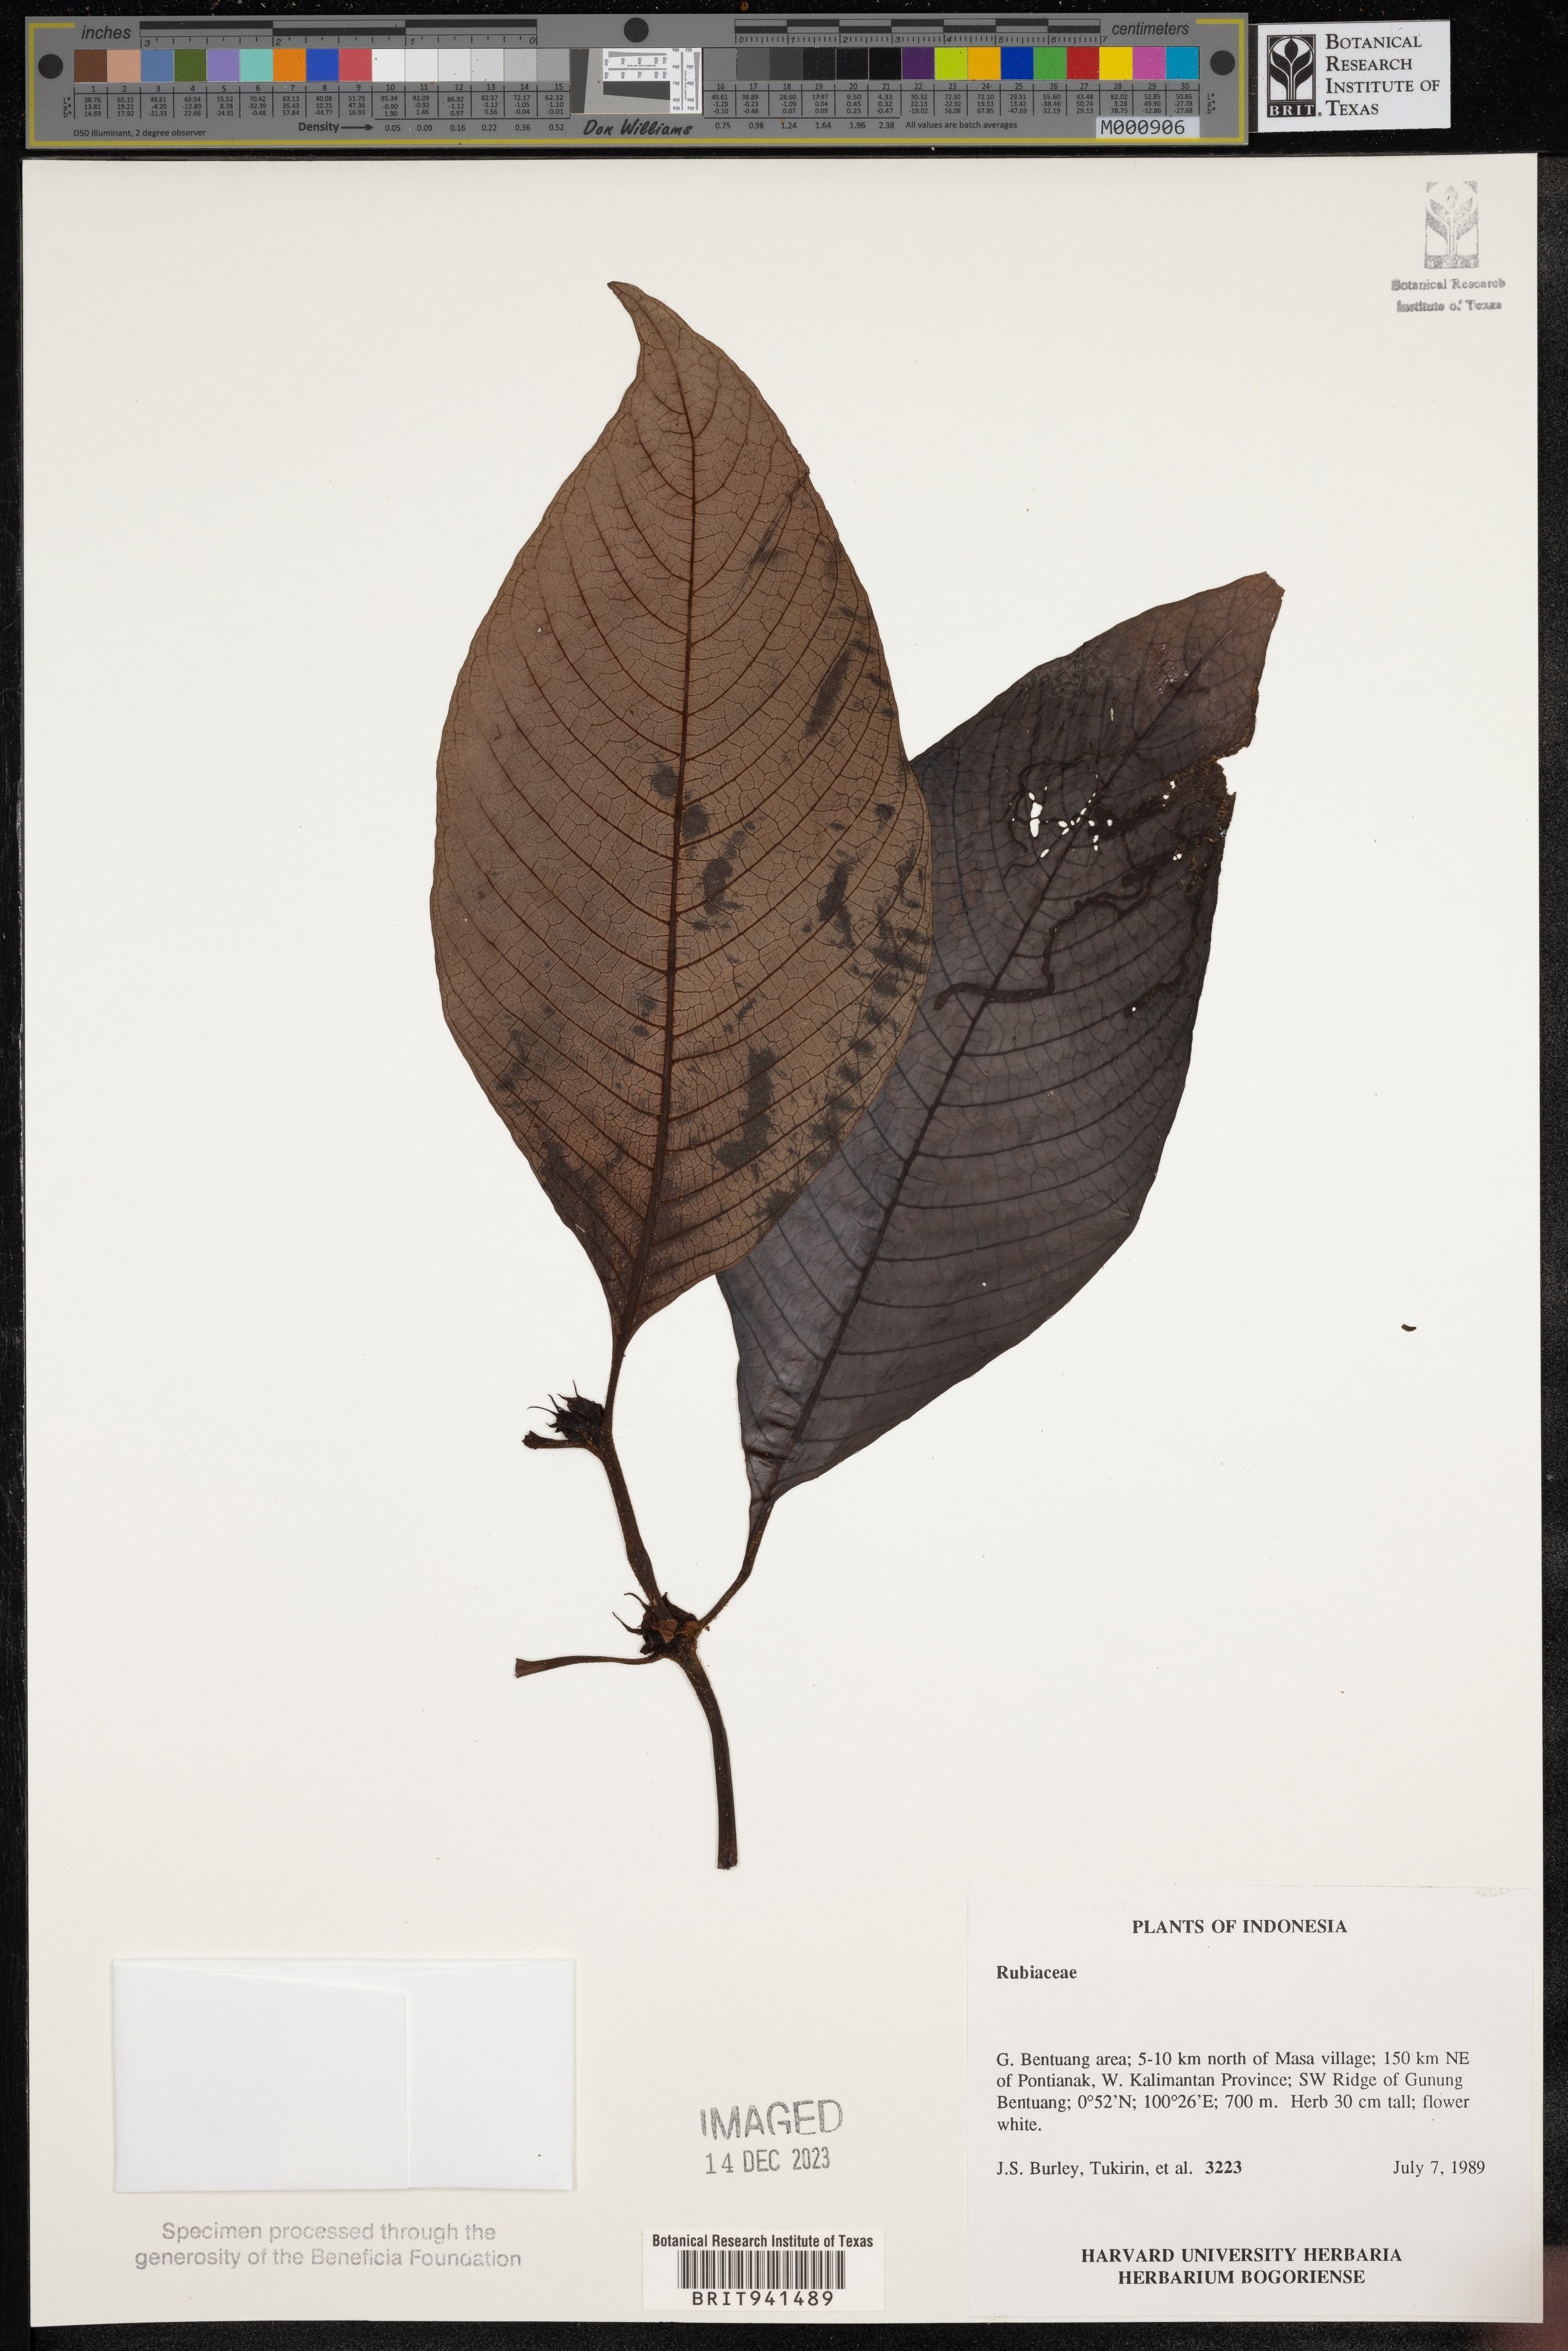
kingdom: Plantae
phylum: Tracheophyta
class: Magnoliopsida
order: Gentianales
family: Rubiaceae
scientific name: Rubiaceae
